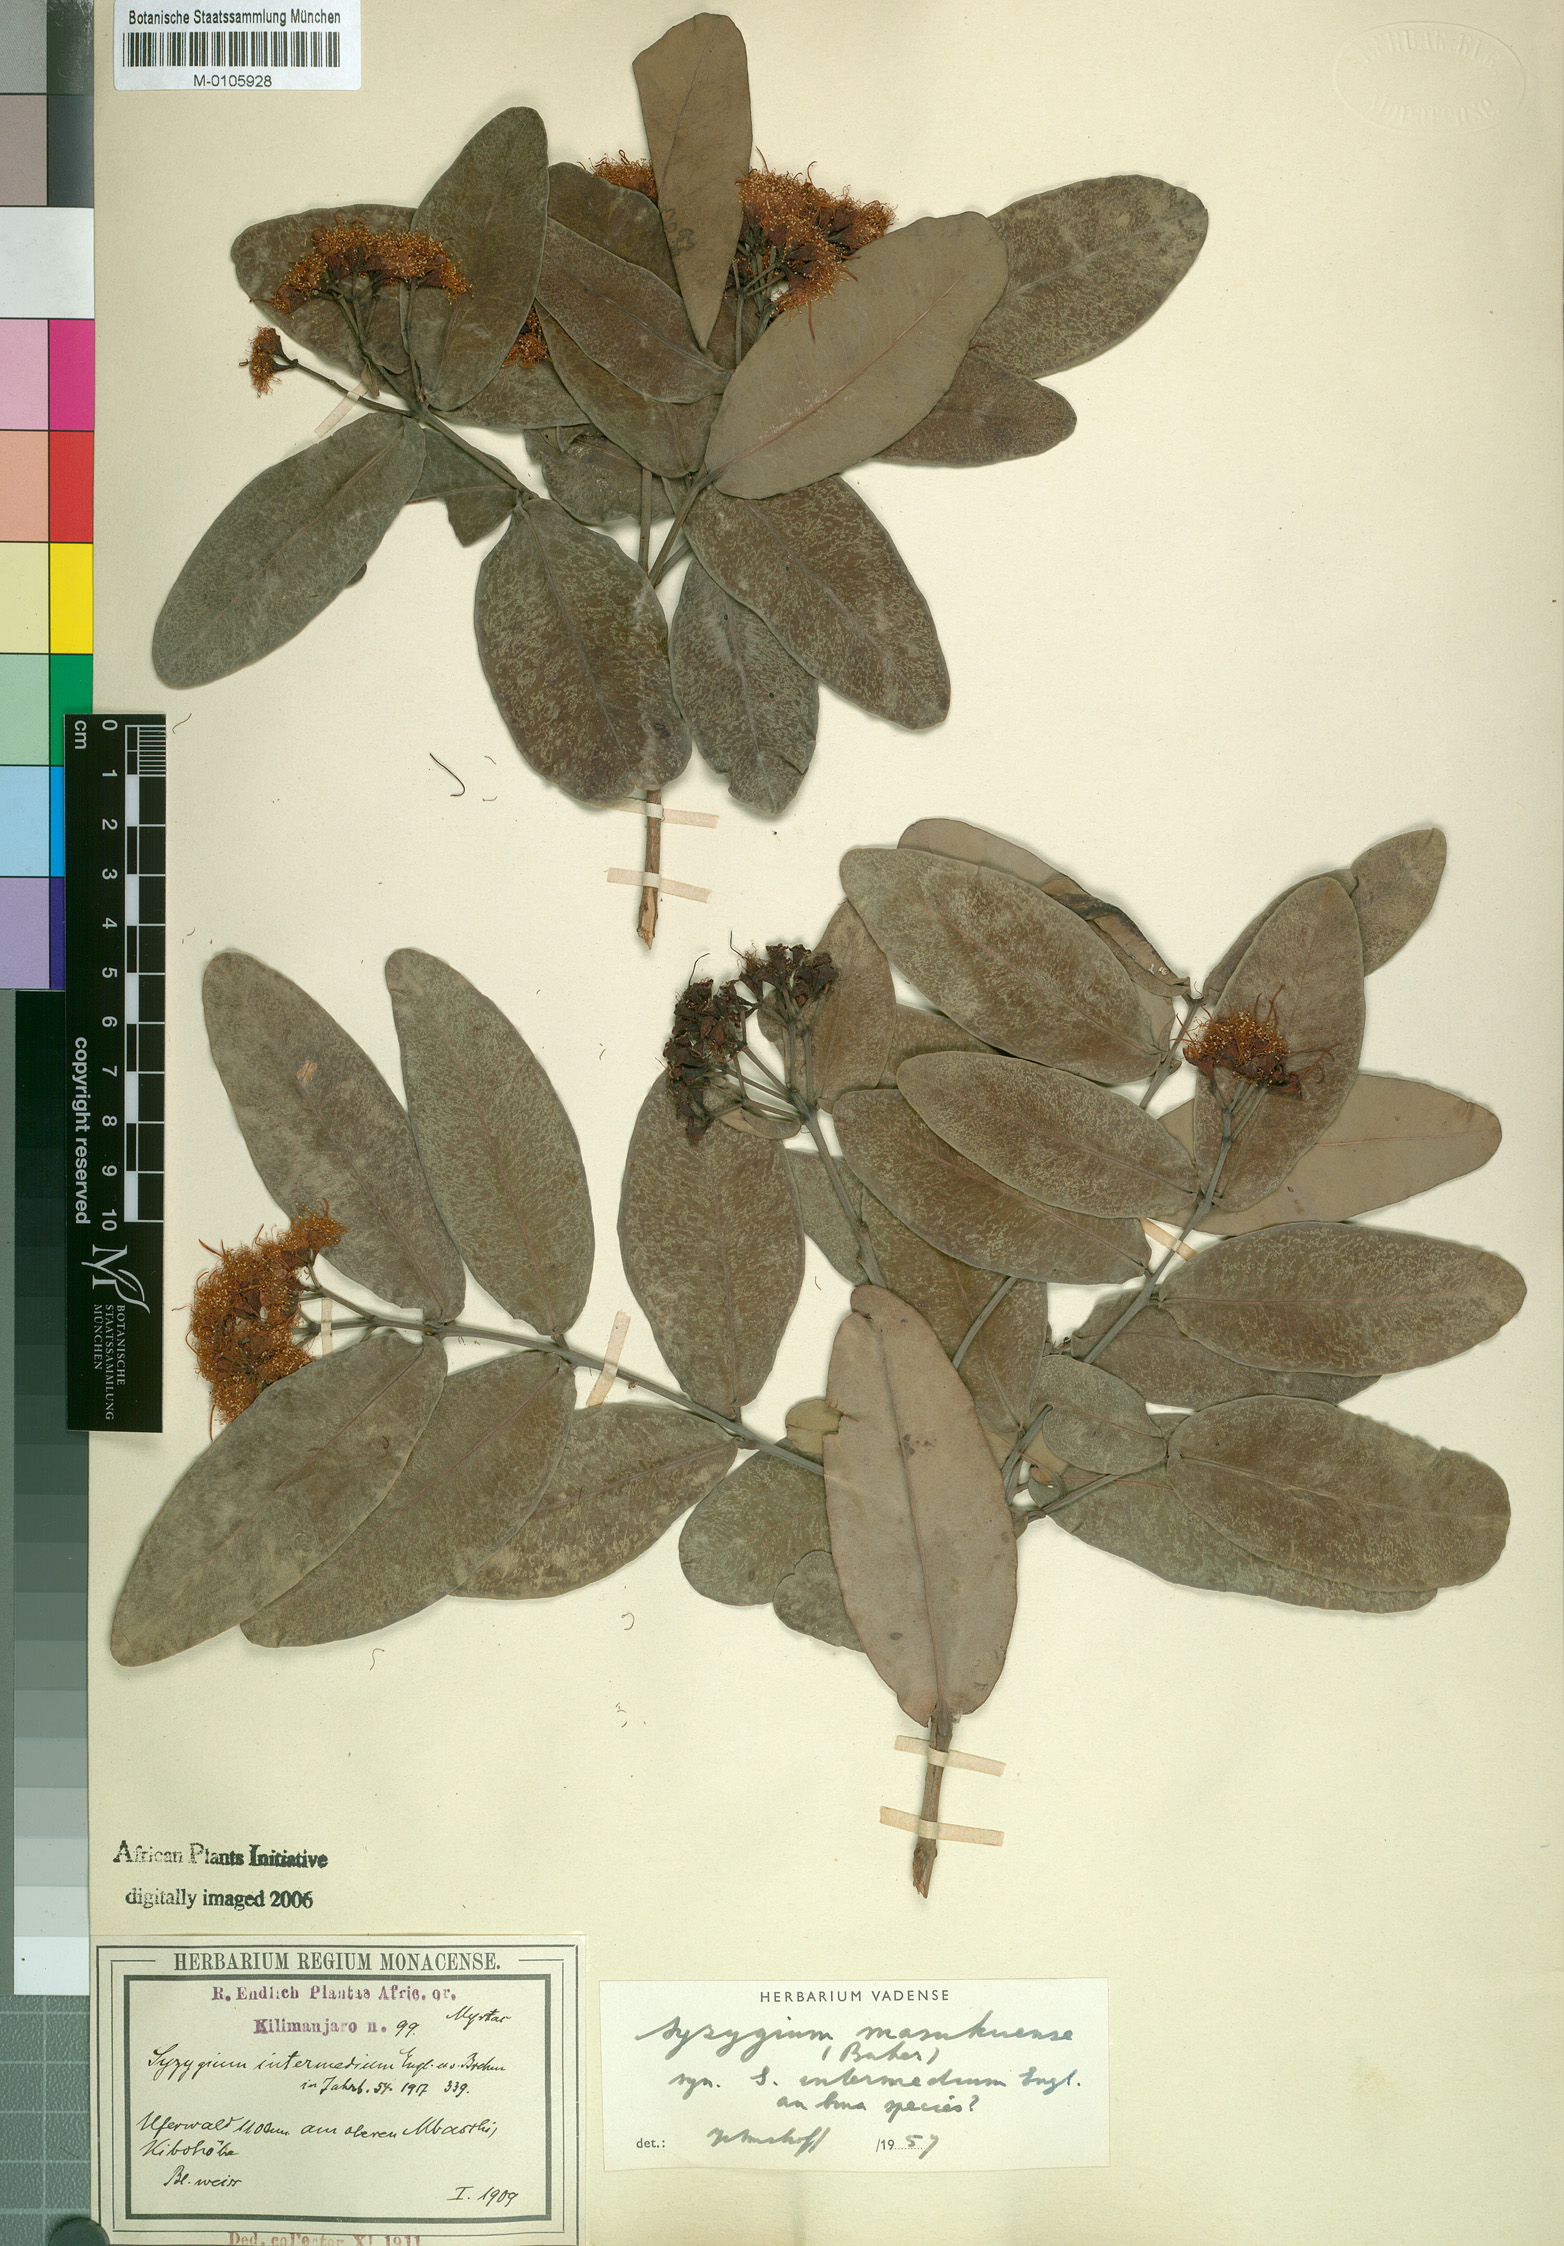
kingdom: Plantae
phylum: Tracheophyta
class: Magnoliopsida
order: Myrtales
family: Myrtaceae
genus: Syzygium
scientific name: Syzygium masukuense
